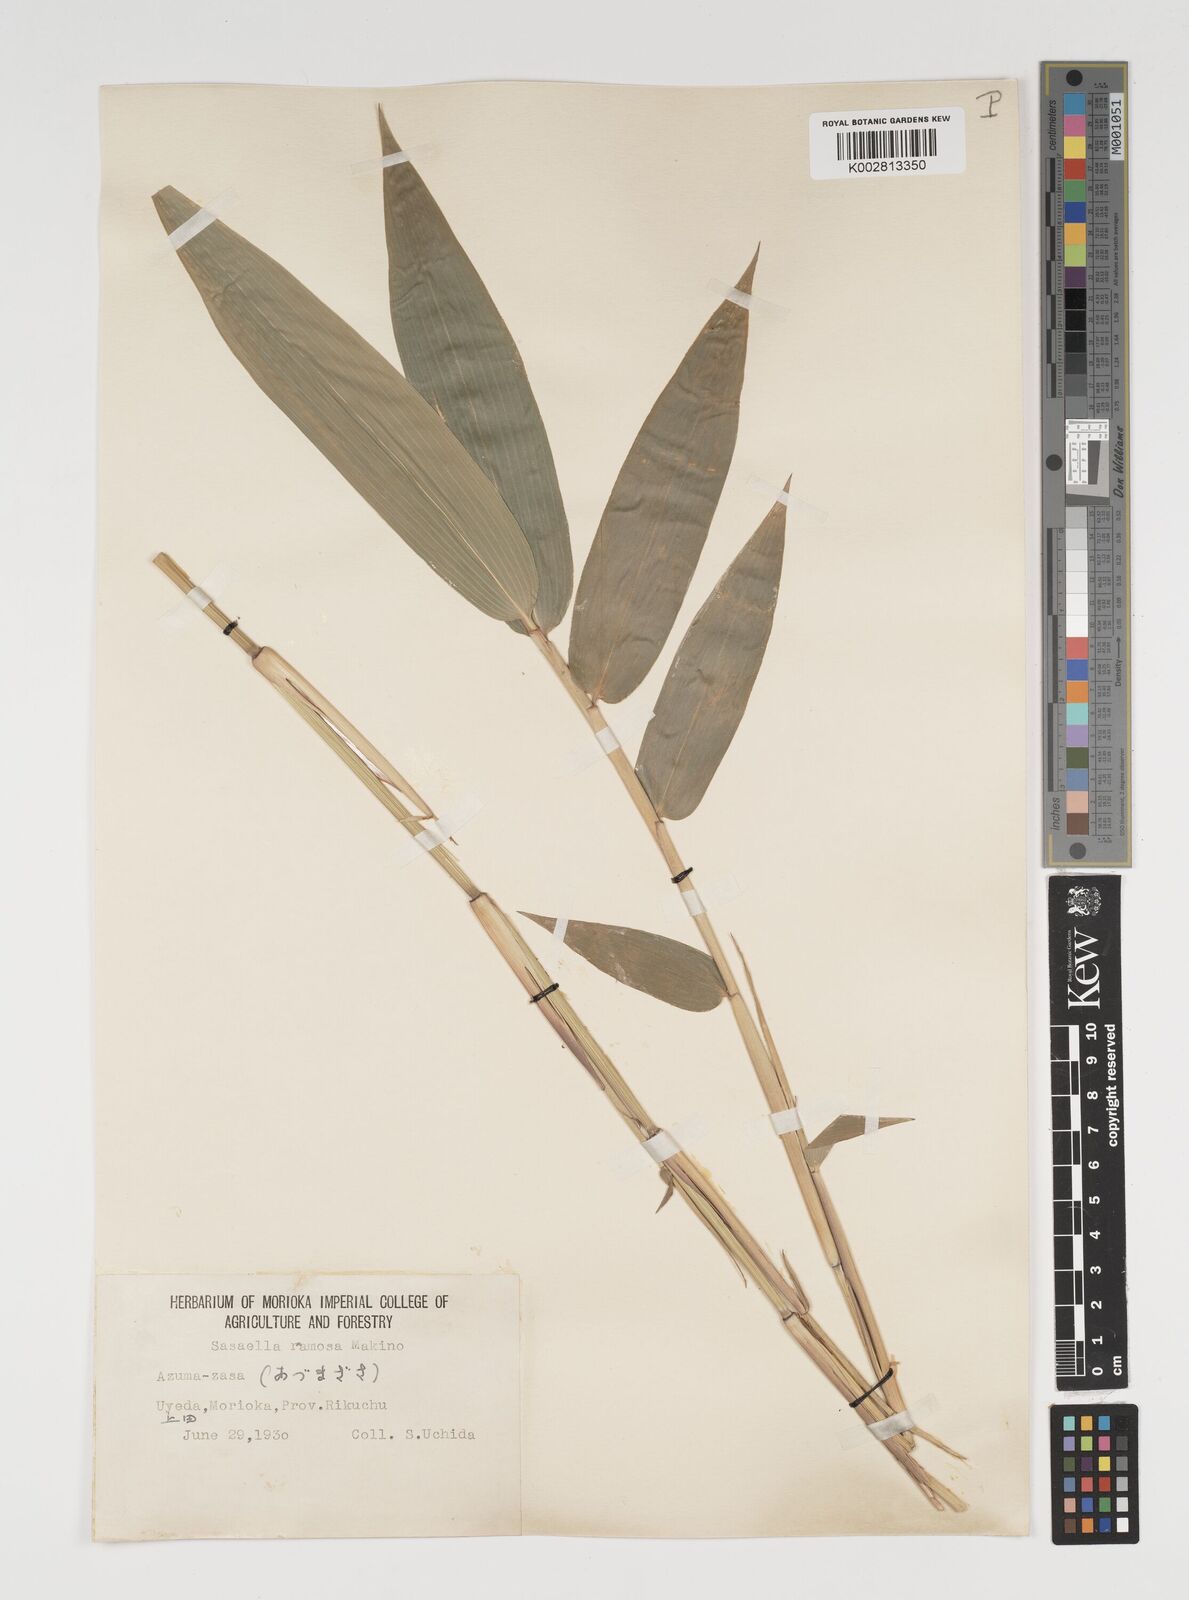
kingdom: Plantae
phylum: Tracheophyta
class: Liliopsida
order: Poales
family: Poaceae
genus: Sasaella
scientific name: Sasaella ramosa
